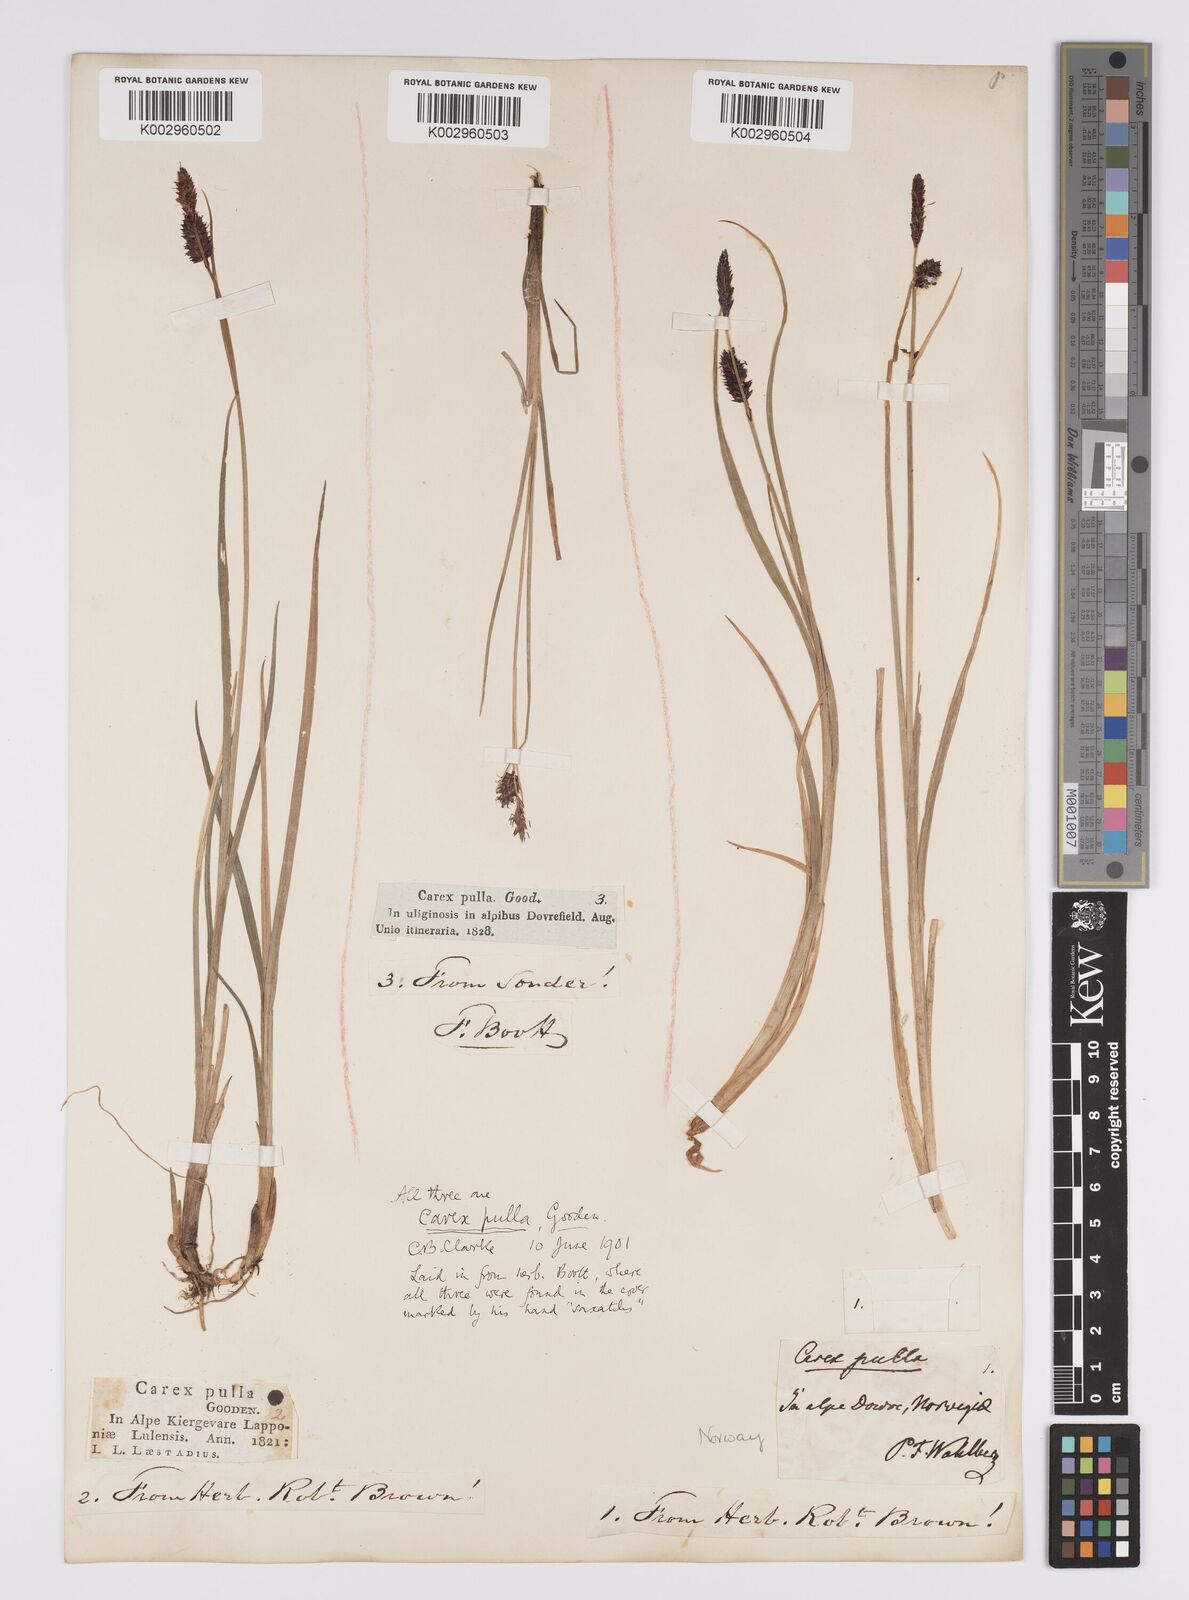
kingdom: Plantae
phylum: Tracheophyta
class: Liliopsida
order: Poales
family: Cyperaceae
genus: Carex
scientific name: Carex saxatilis
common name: Russet sedge
